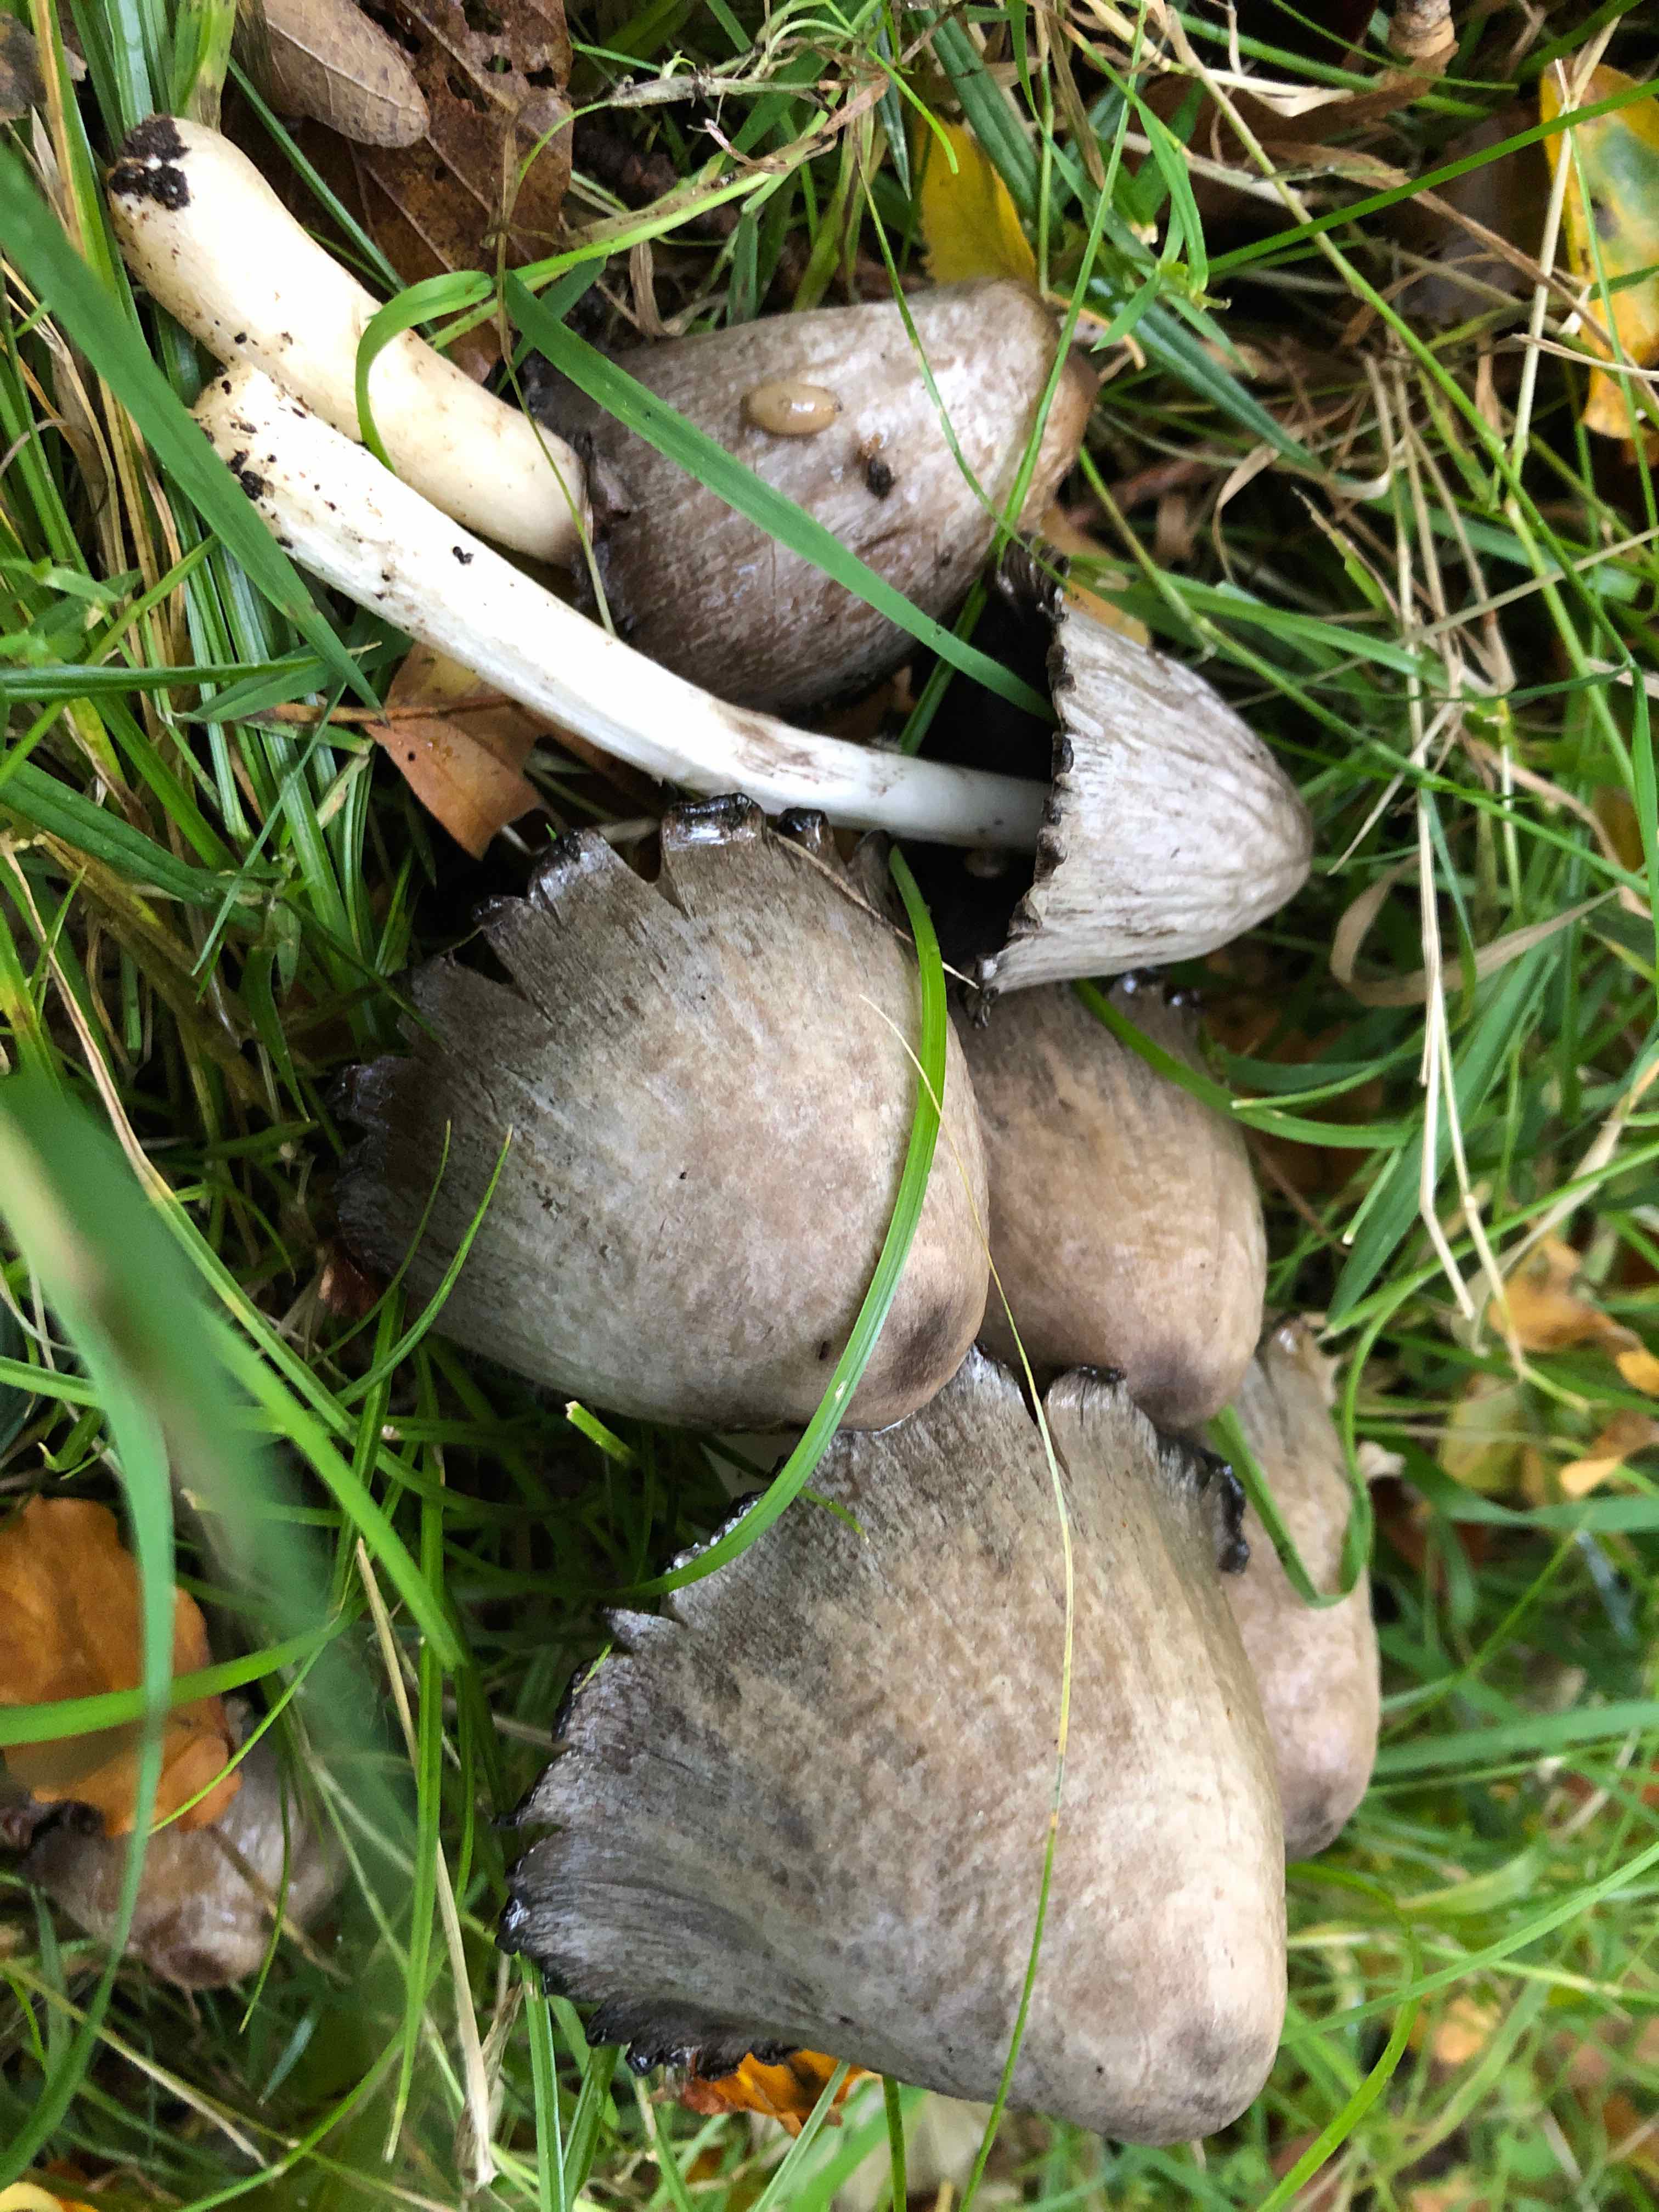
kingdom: Fungi
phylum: Basidiomycota
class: Agaricomycetes
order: Agaricales
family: Psathyrellaceae
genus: Coprinopsis
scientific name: Coprinopsis atramentaria
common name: almindelig blækhat
